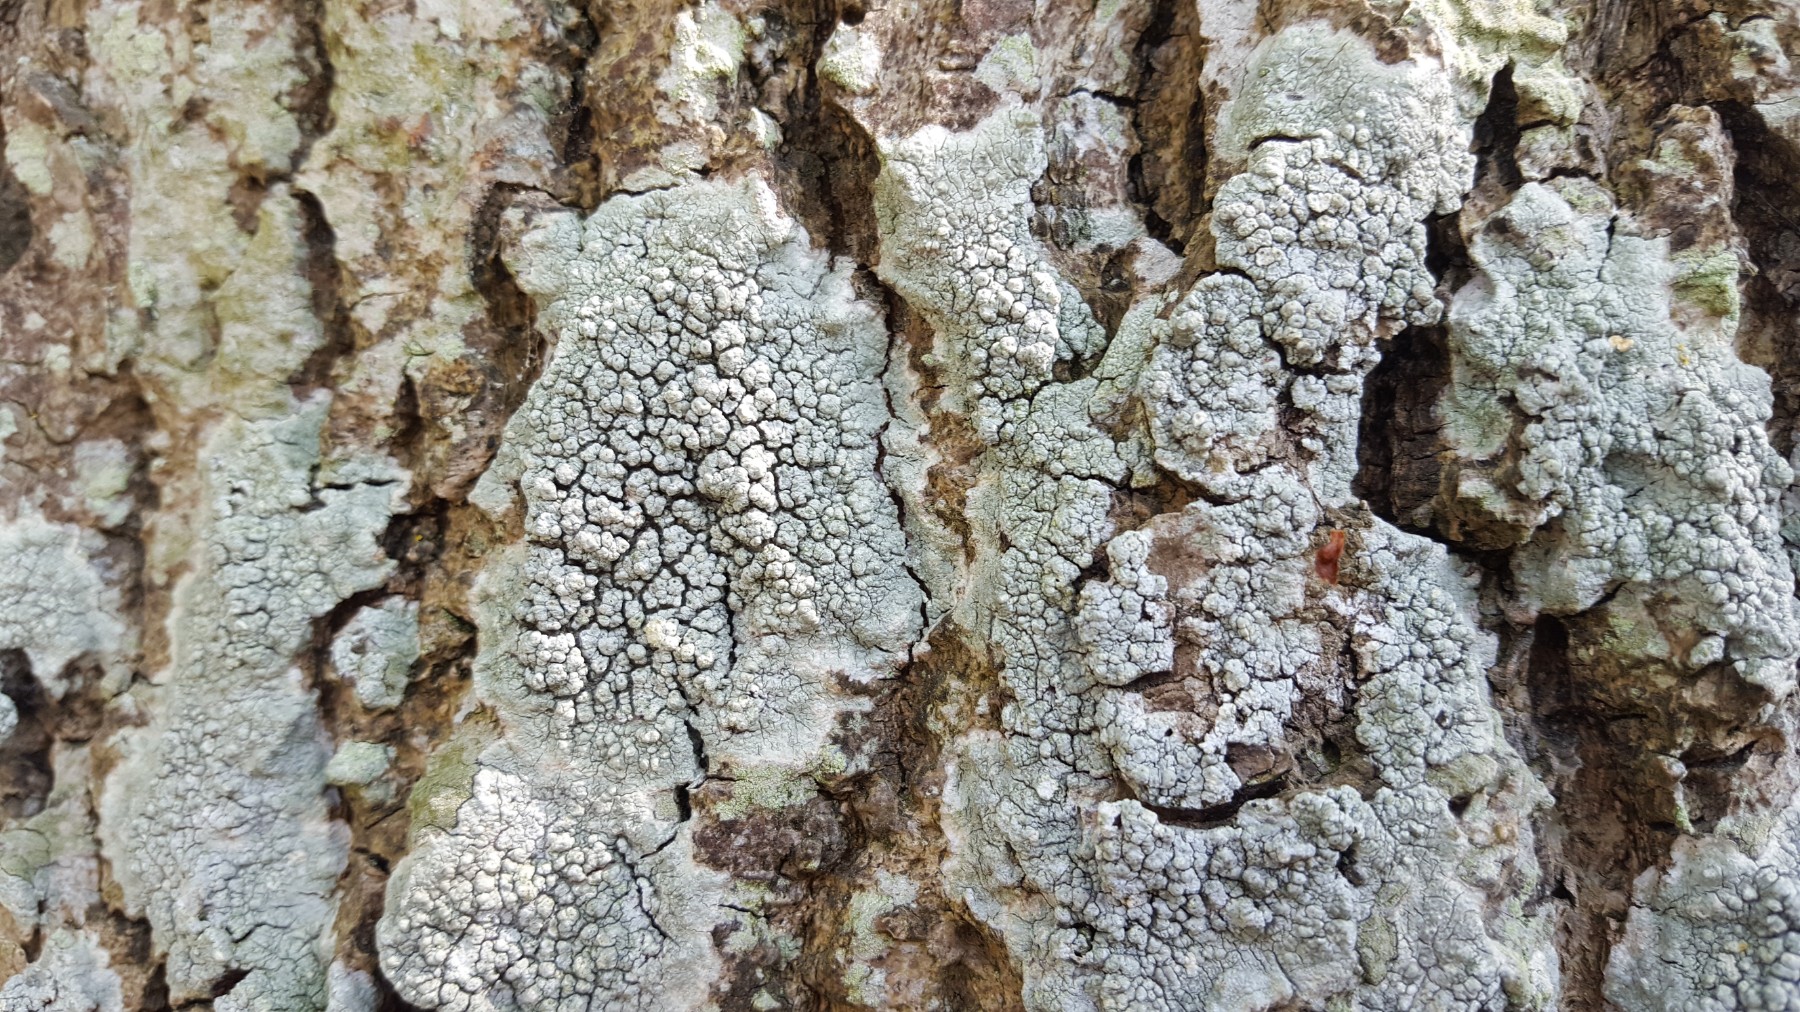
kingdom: Fungi
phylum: Ascomycota
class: Lecanoromycetes
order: Pertusariales
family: Pertusariaceae
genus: Pertusaria
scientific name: Pertusaria pertusa
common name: almindelig prikvortelav
